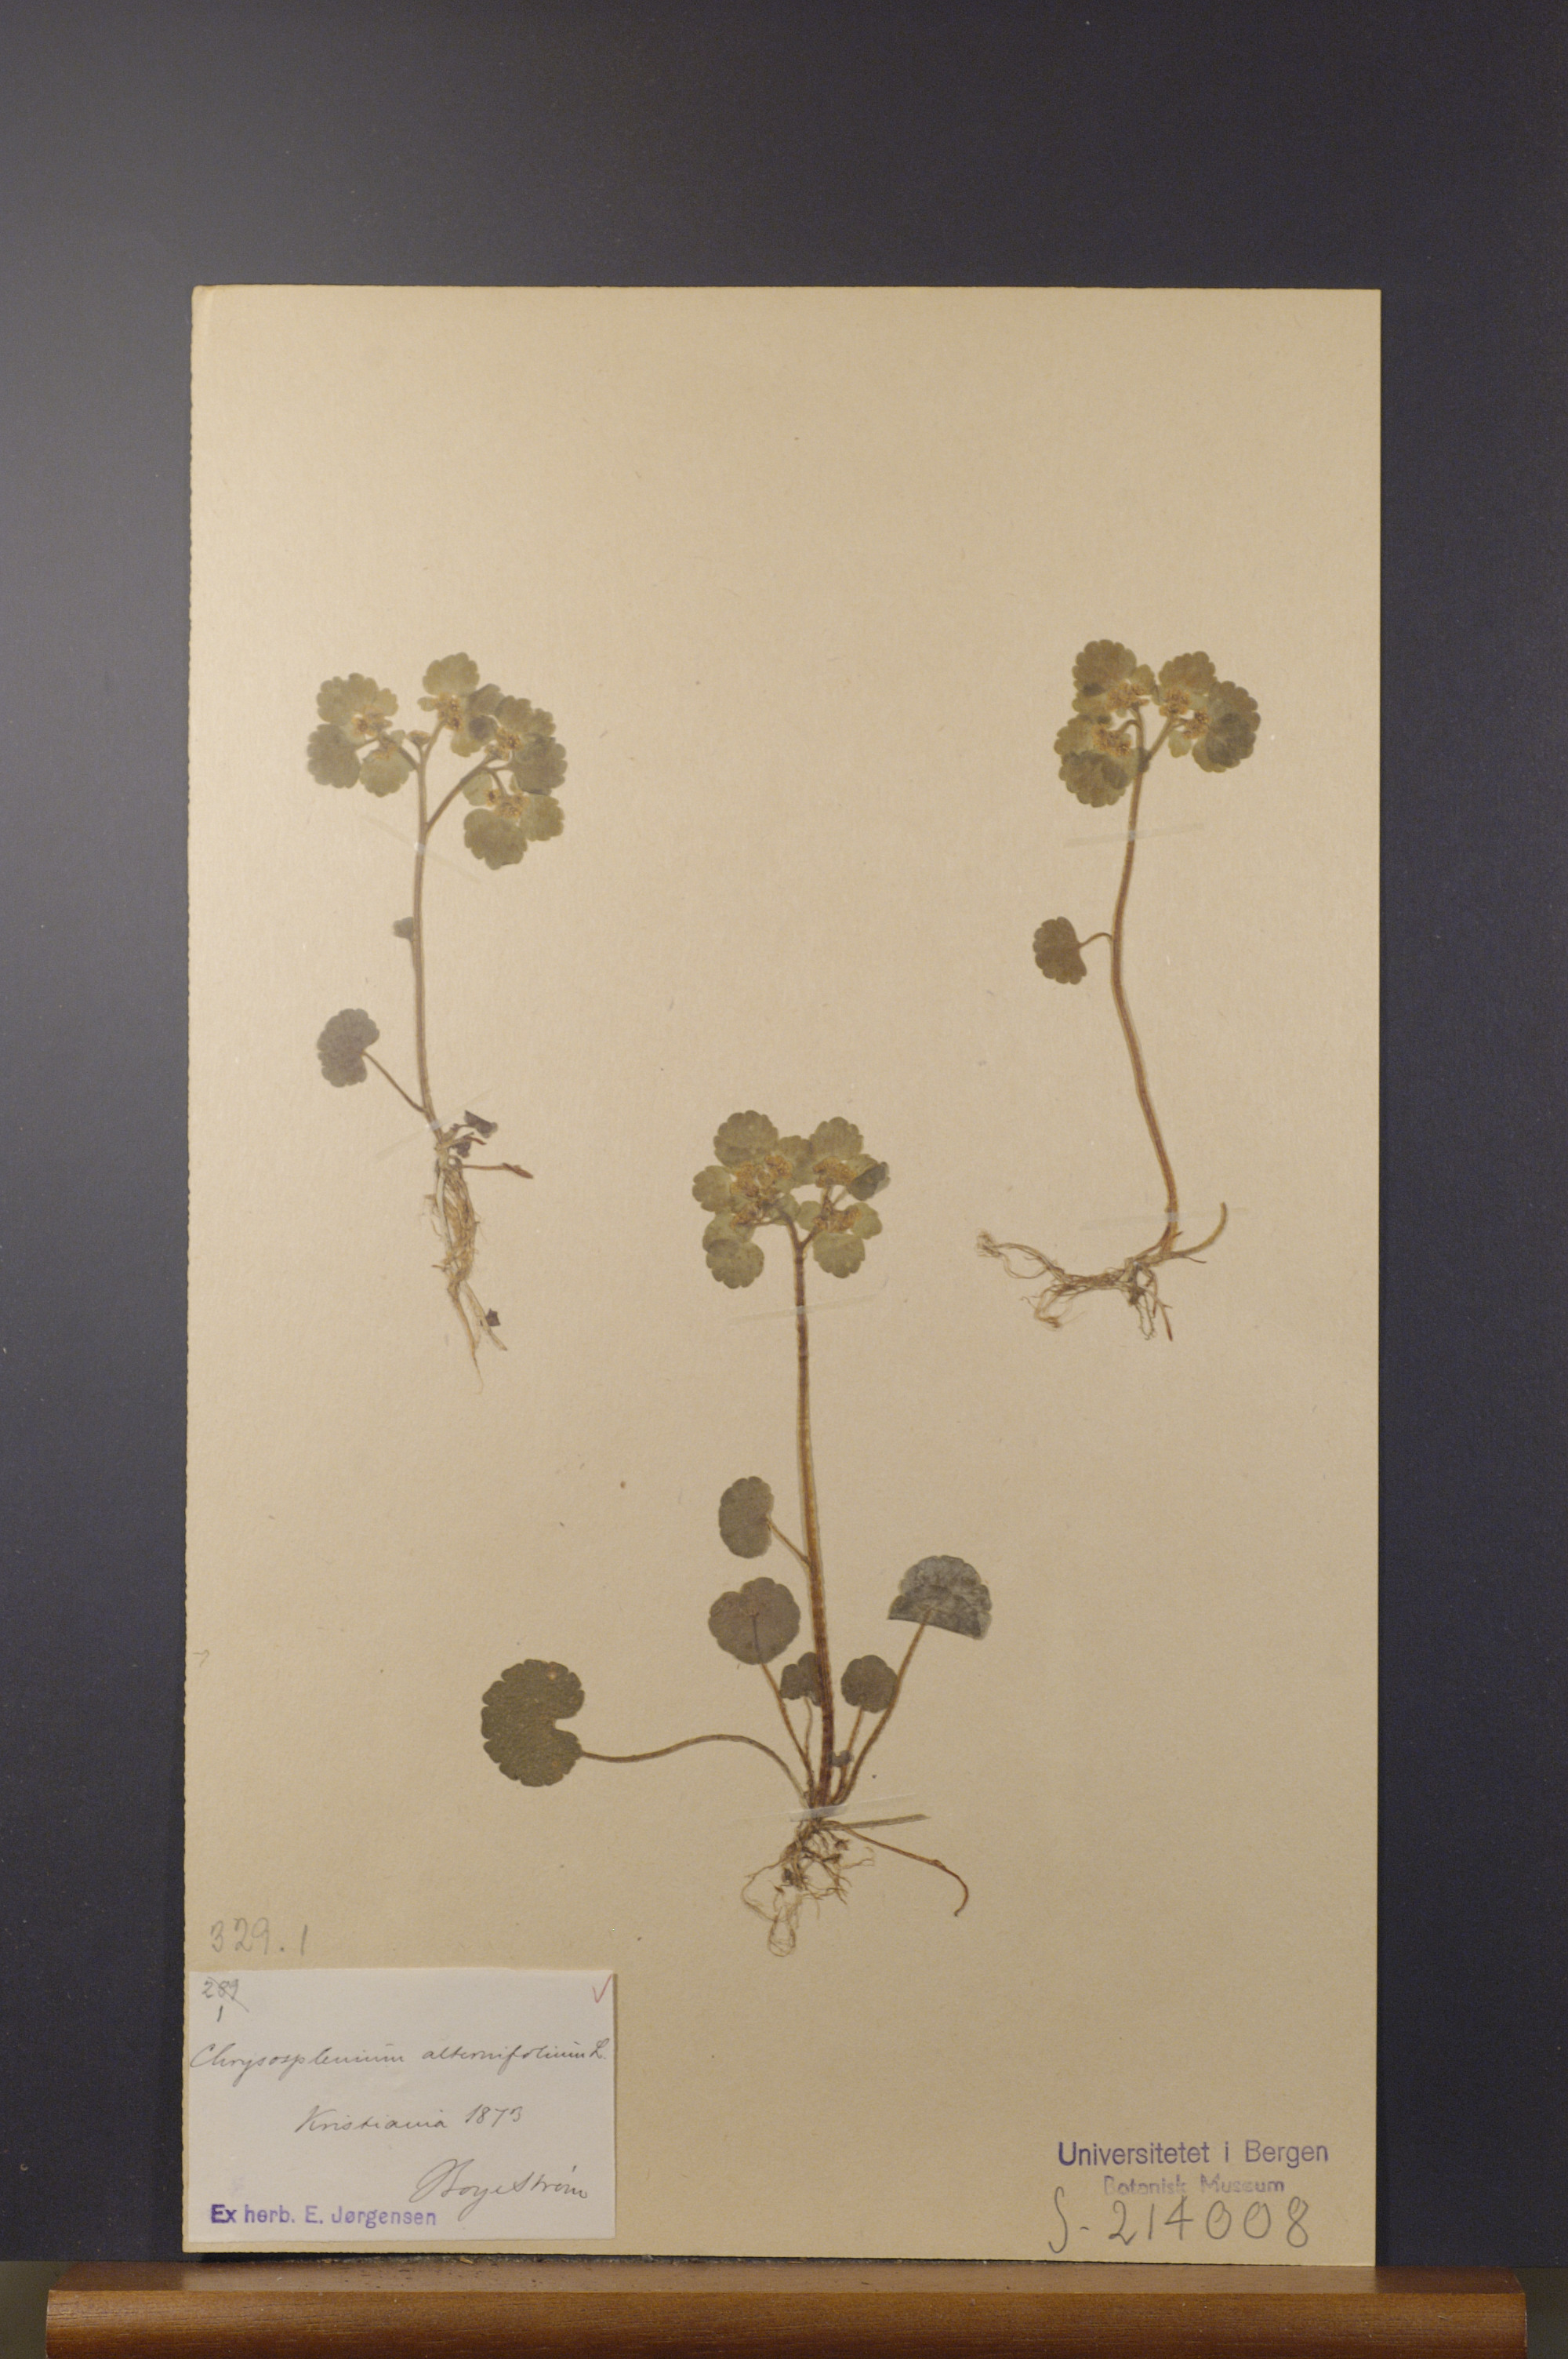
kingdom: Plantae
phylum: Tracheophyta
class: Magnoliopsida
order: Saxifragales
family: Saxifragaceae
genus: Chrysosplenium
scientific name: Chrysosplenium alternifolium
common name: Alternate-leaved golden-saxifrage
